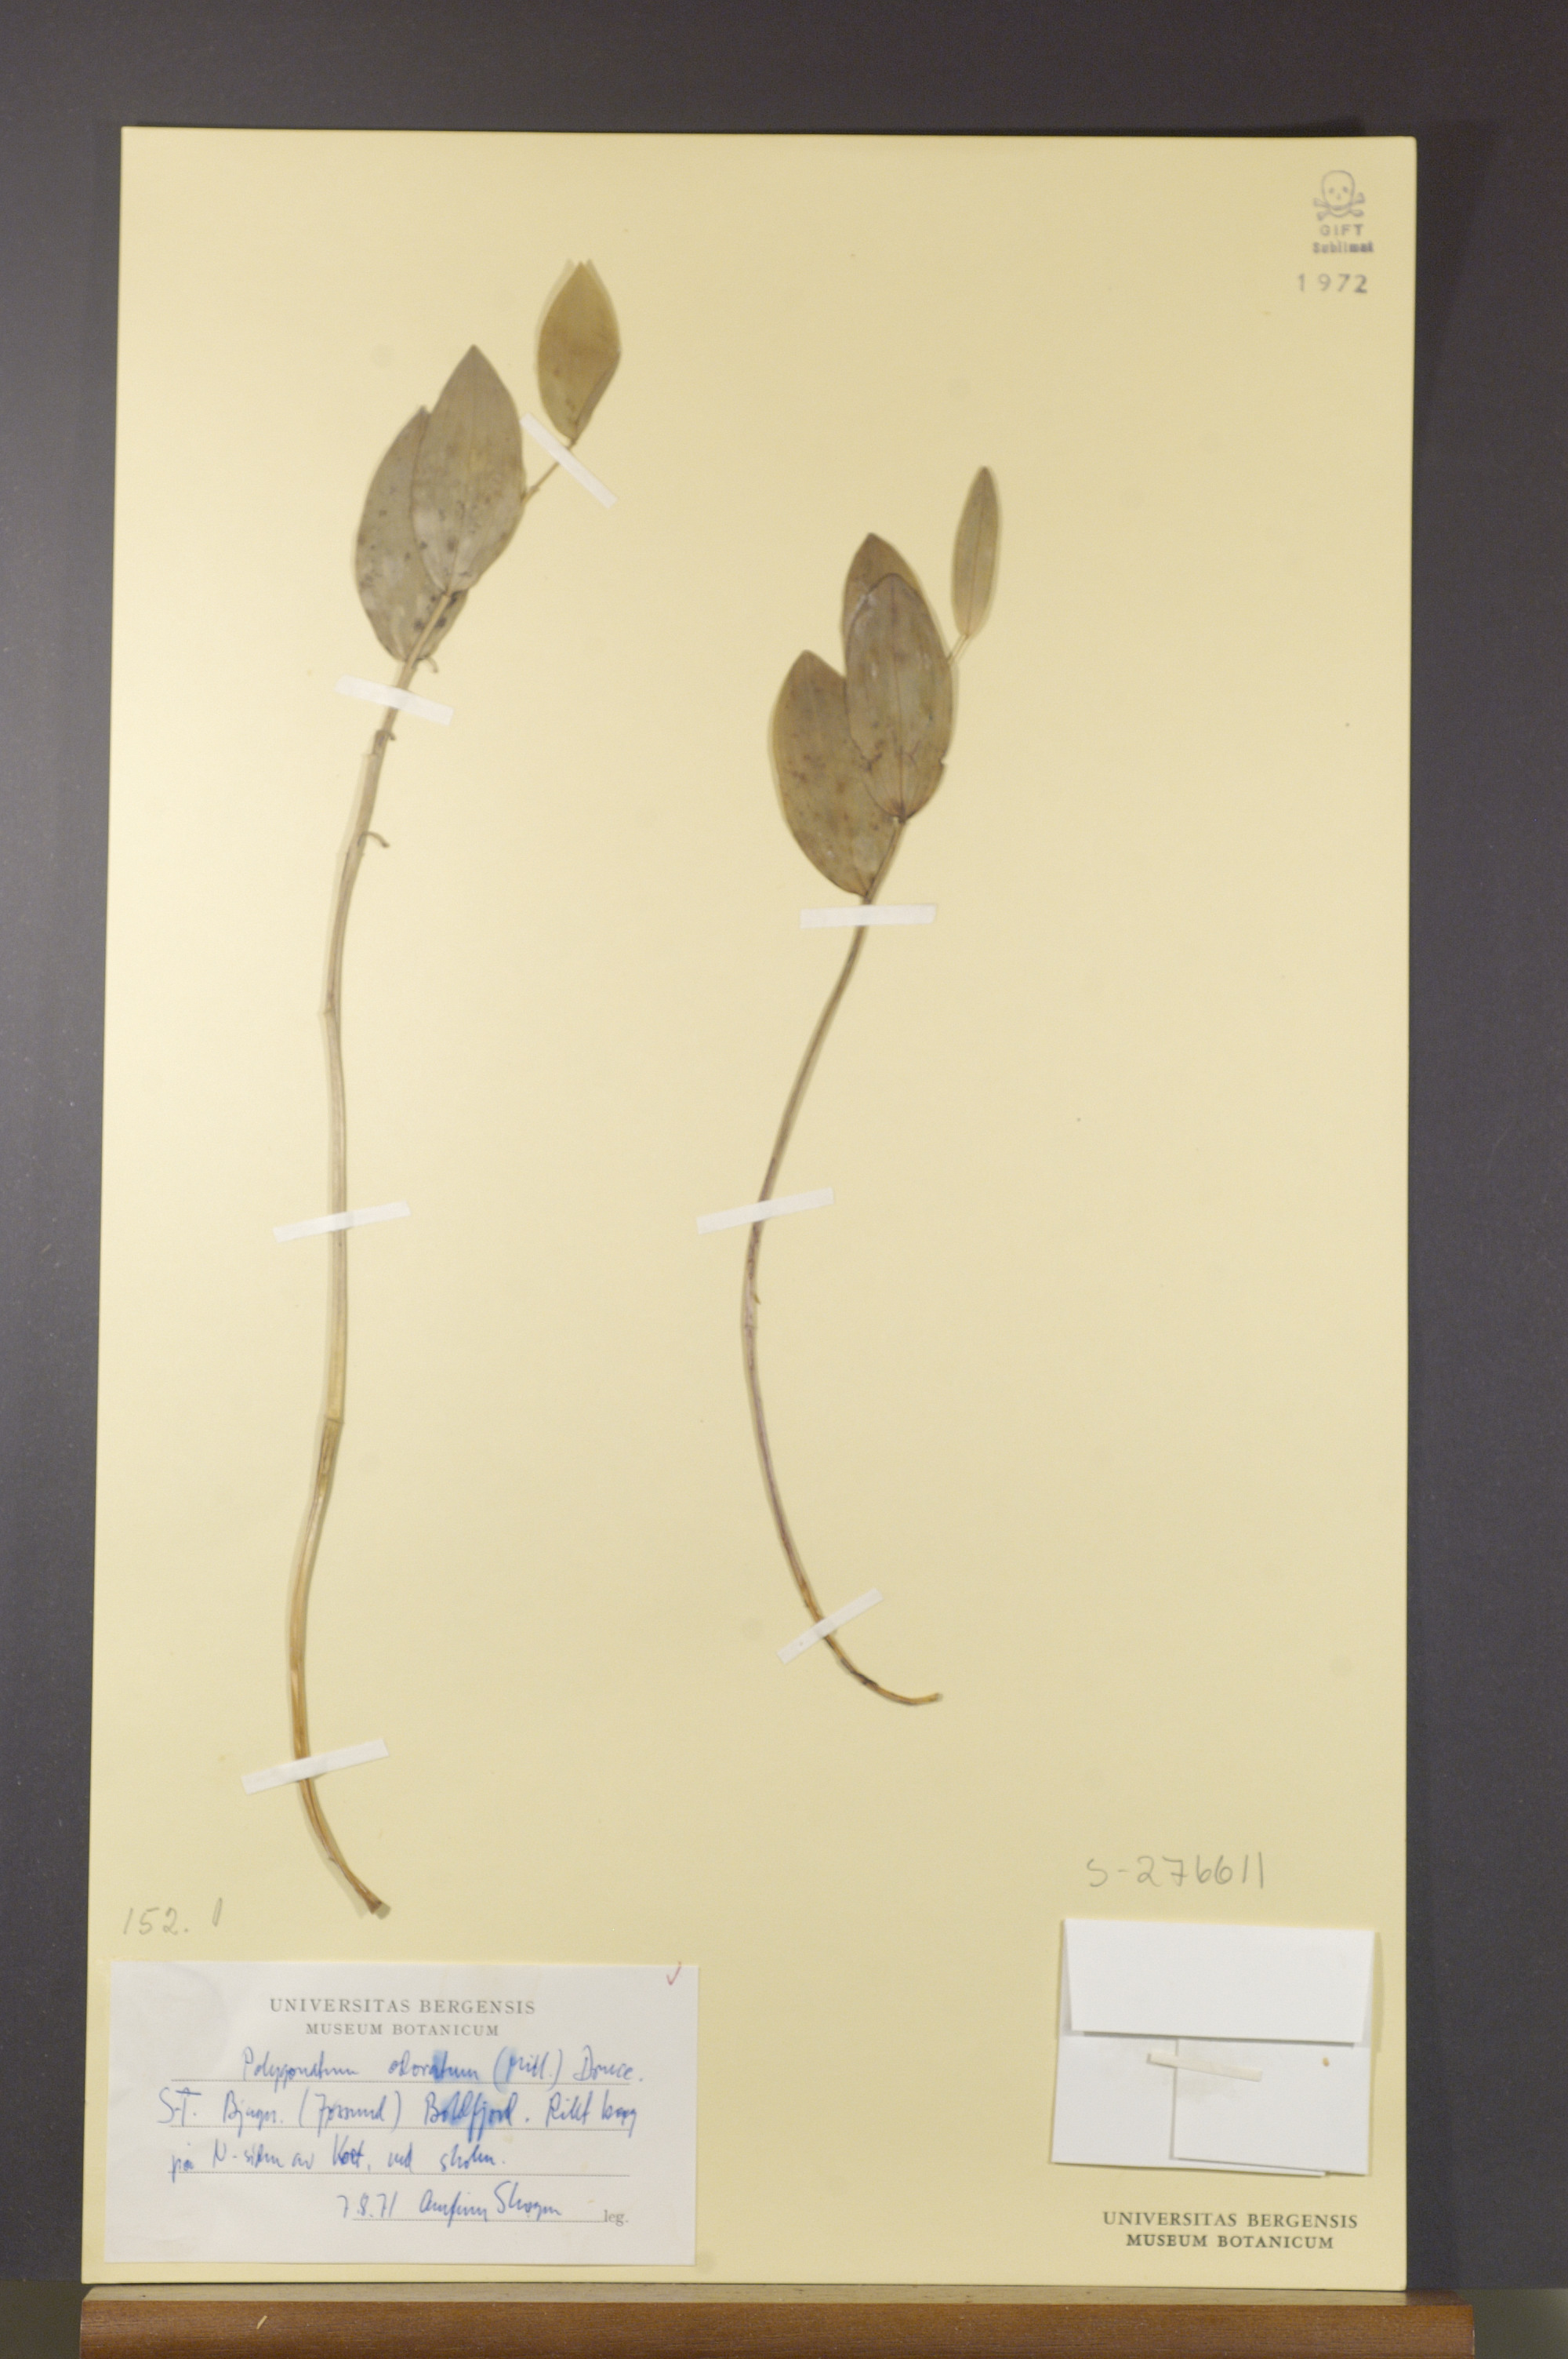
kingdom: Plantae
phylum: Tracheophyta
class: Liliopsida
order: Asparagales
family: Asparagaceae
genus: Polygonatum
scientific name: Polygonatum odoratum
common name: Angular solomon's-seal
